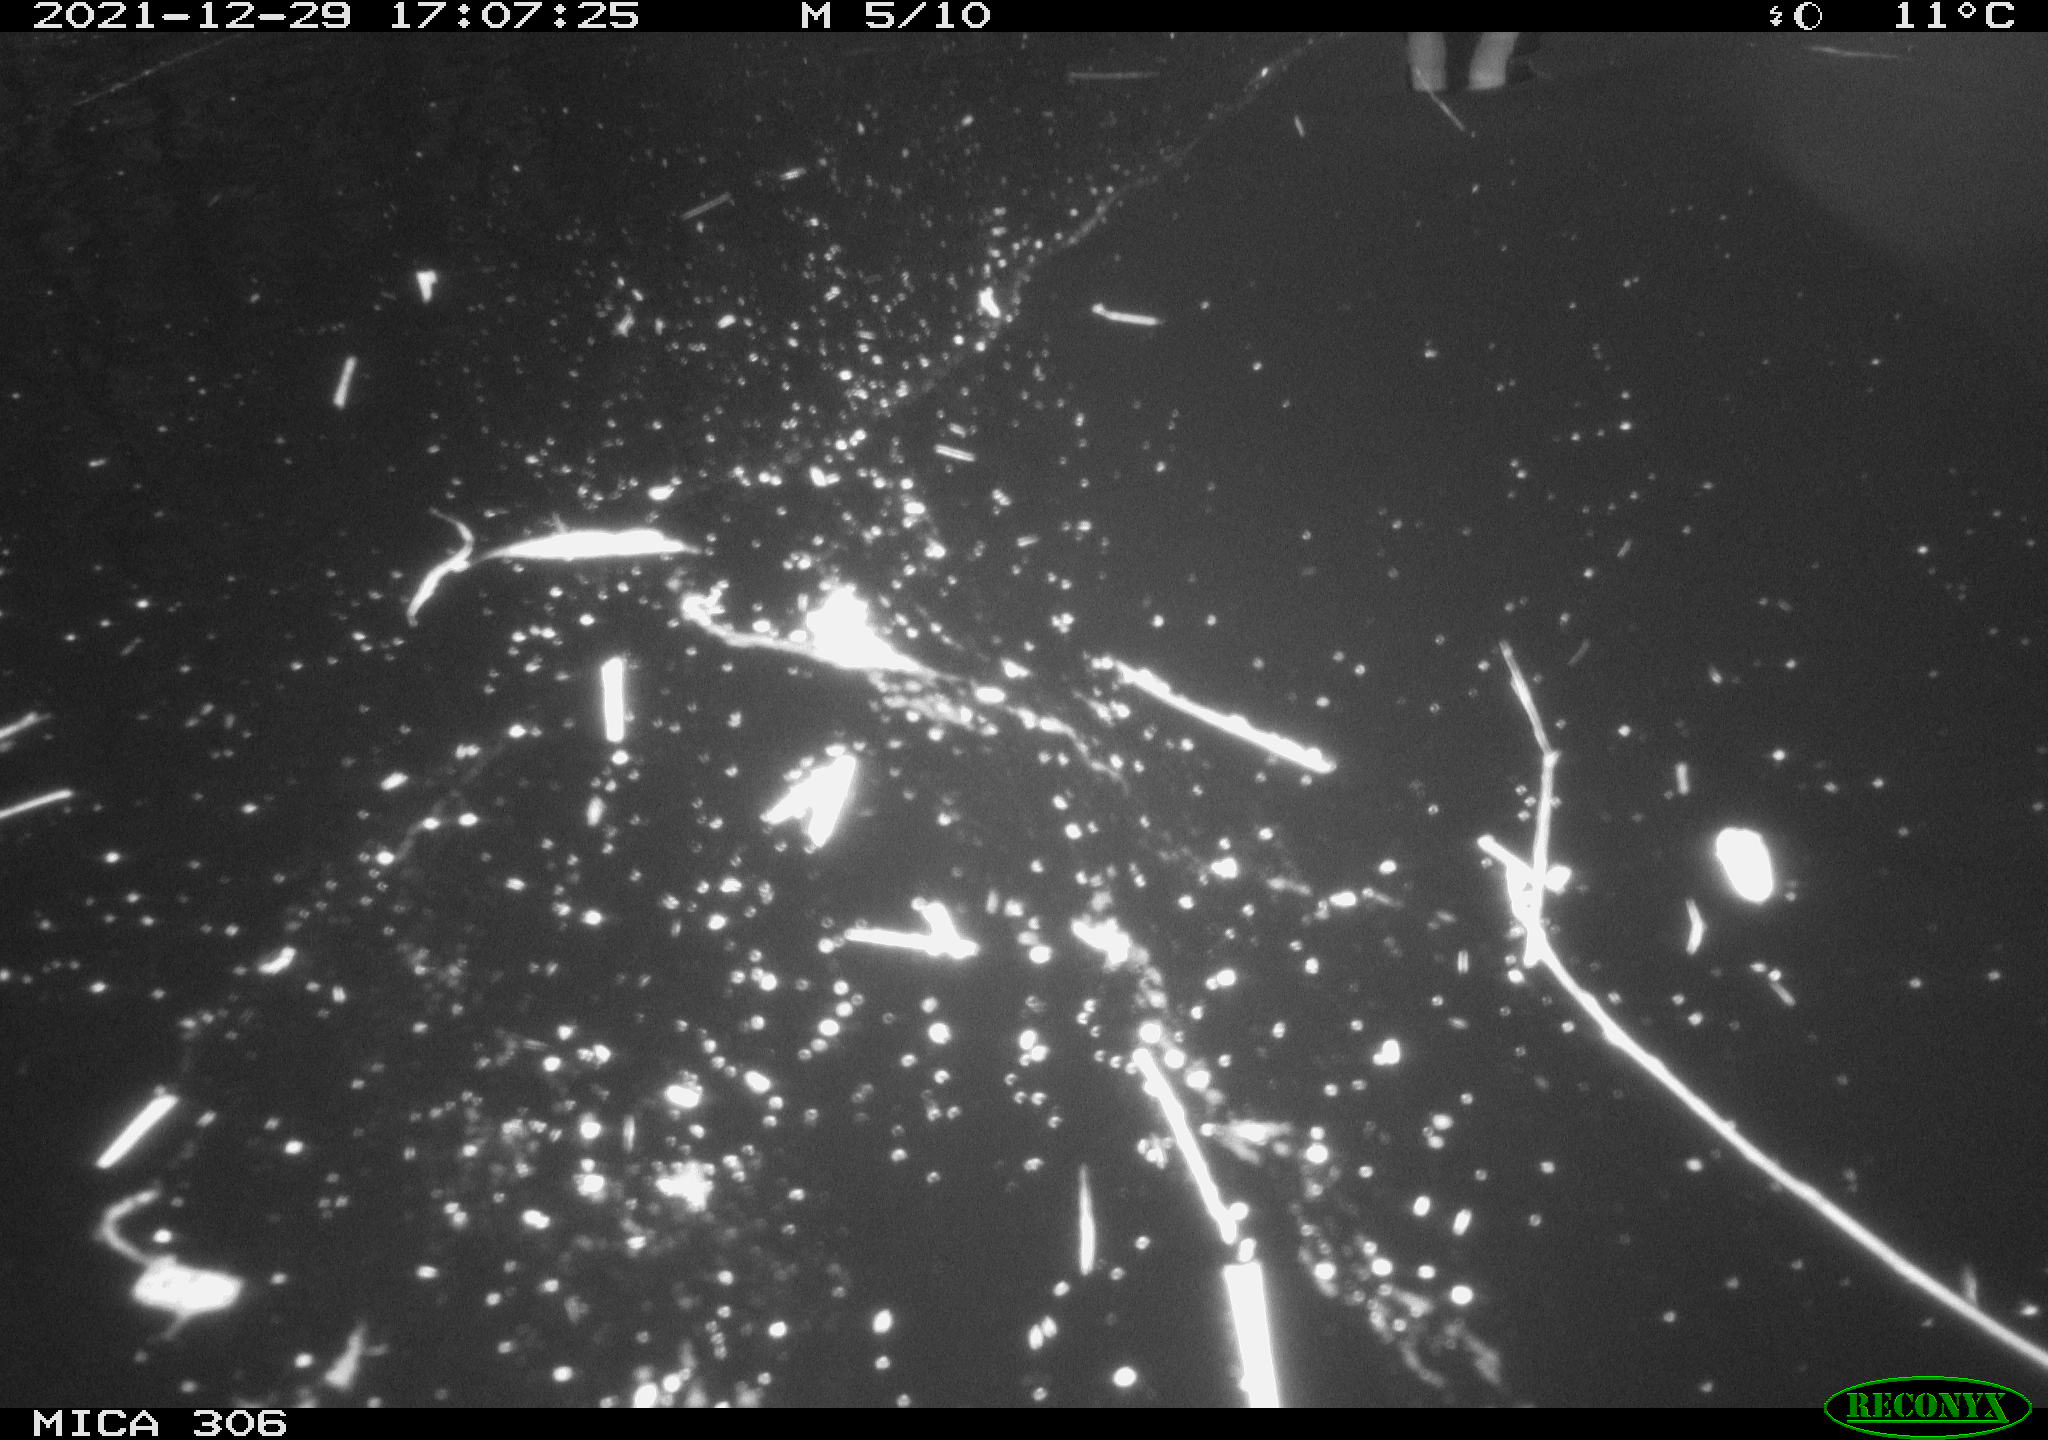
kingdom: Animalia
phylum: Chordata
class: Aves
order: Gruiformes
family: Rallidae
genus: Gallinula
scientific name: Gallinula chloropus
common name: Common moorhen
